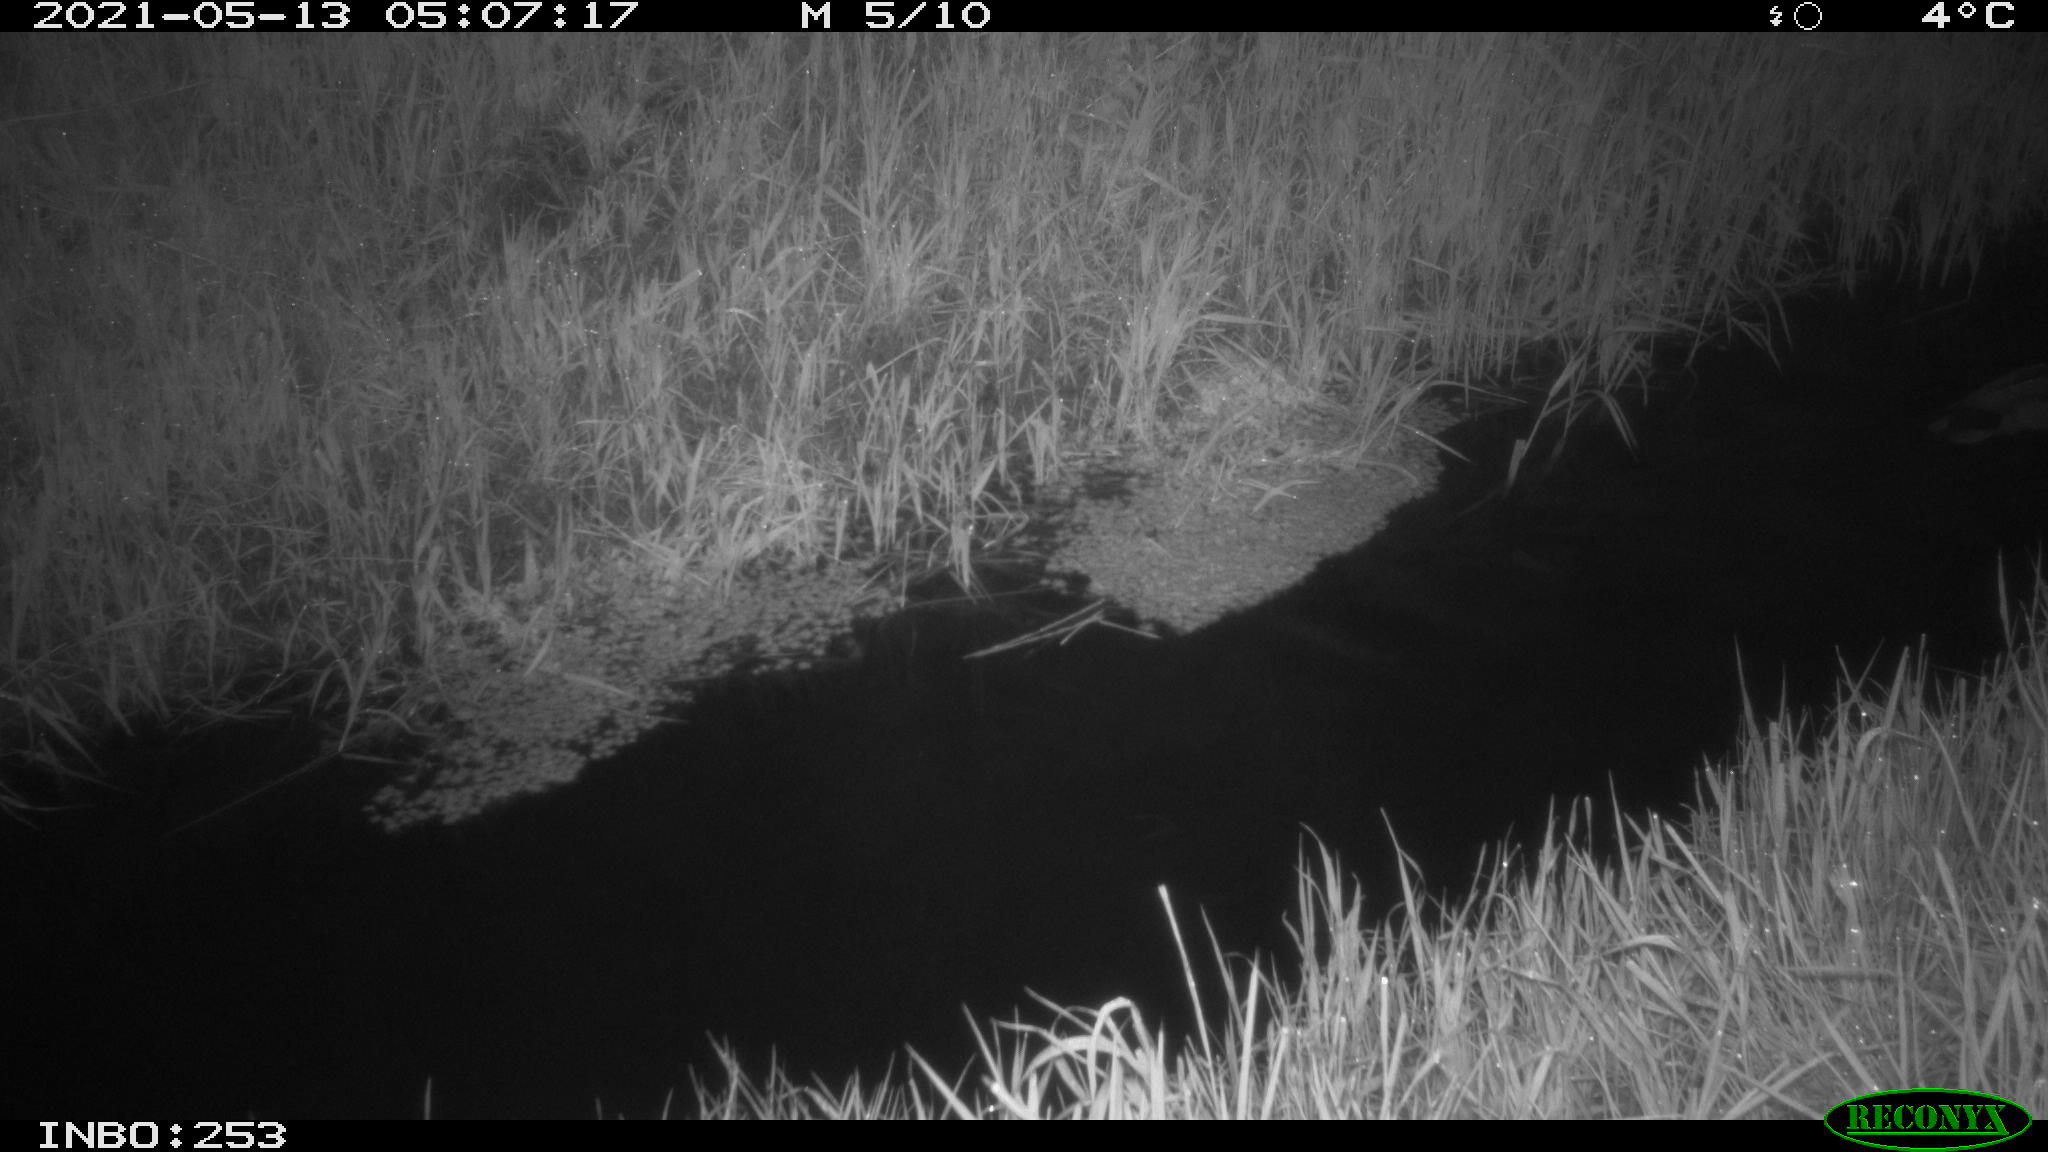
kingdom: Animalia
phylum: Chordata
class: Aves
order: Anseriformes
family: Anatidae
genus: Anas
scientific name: Anas platyrhynchos
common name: Mallard
